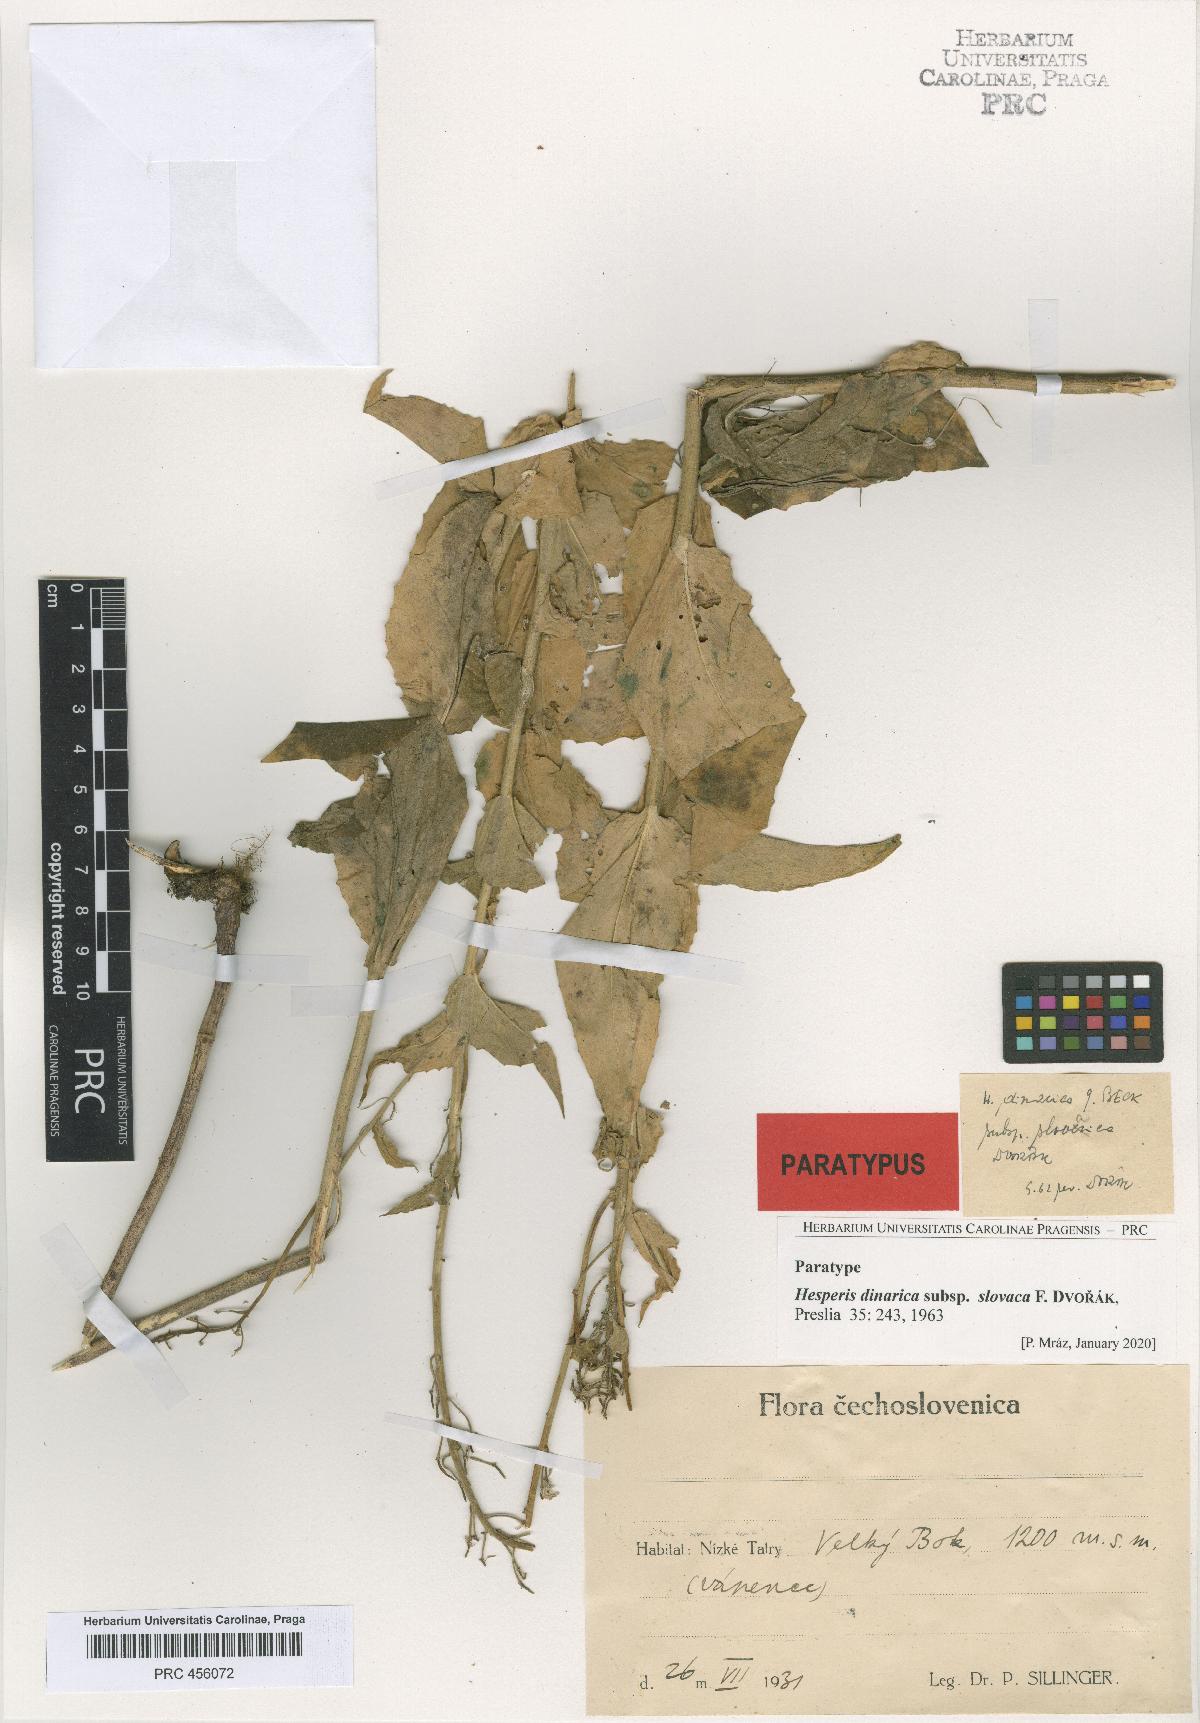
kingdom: Plantae
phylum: Tracheophyta
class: Magnoliopsida
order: Brassicales
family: Brassicaceae
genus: Hesperis
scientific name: Hesperis dinarica
